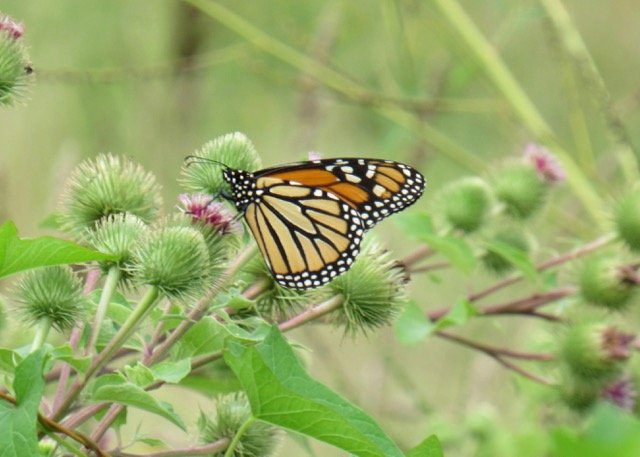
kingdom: Animalia
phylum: Arthropoda
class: Insecta
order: Lepidoptera
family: Nymphalidae
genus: Danaus
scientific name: Danaus plexippus
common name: Monarch
